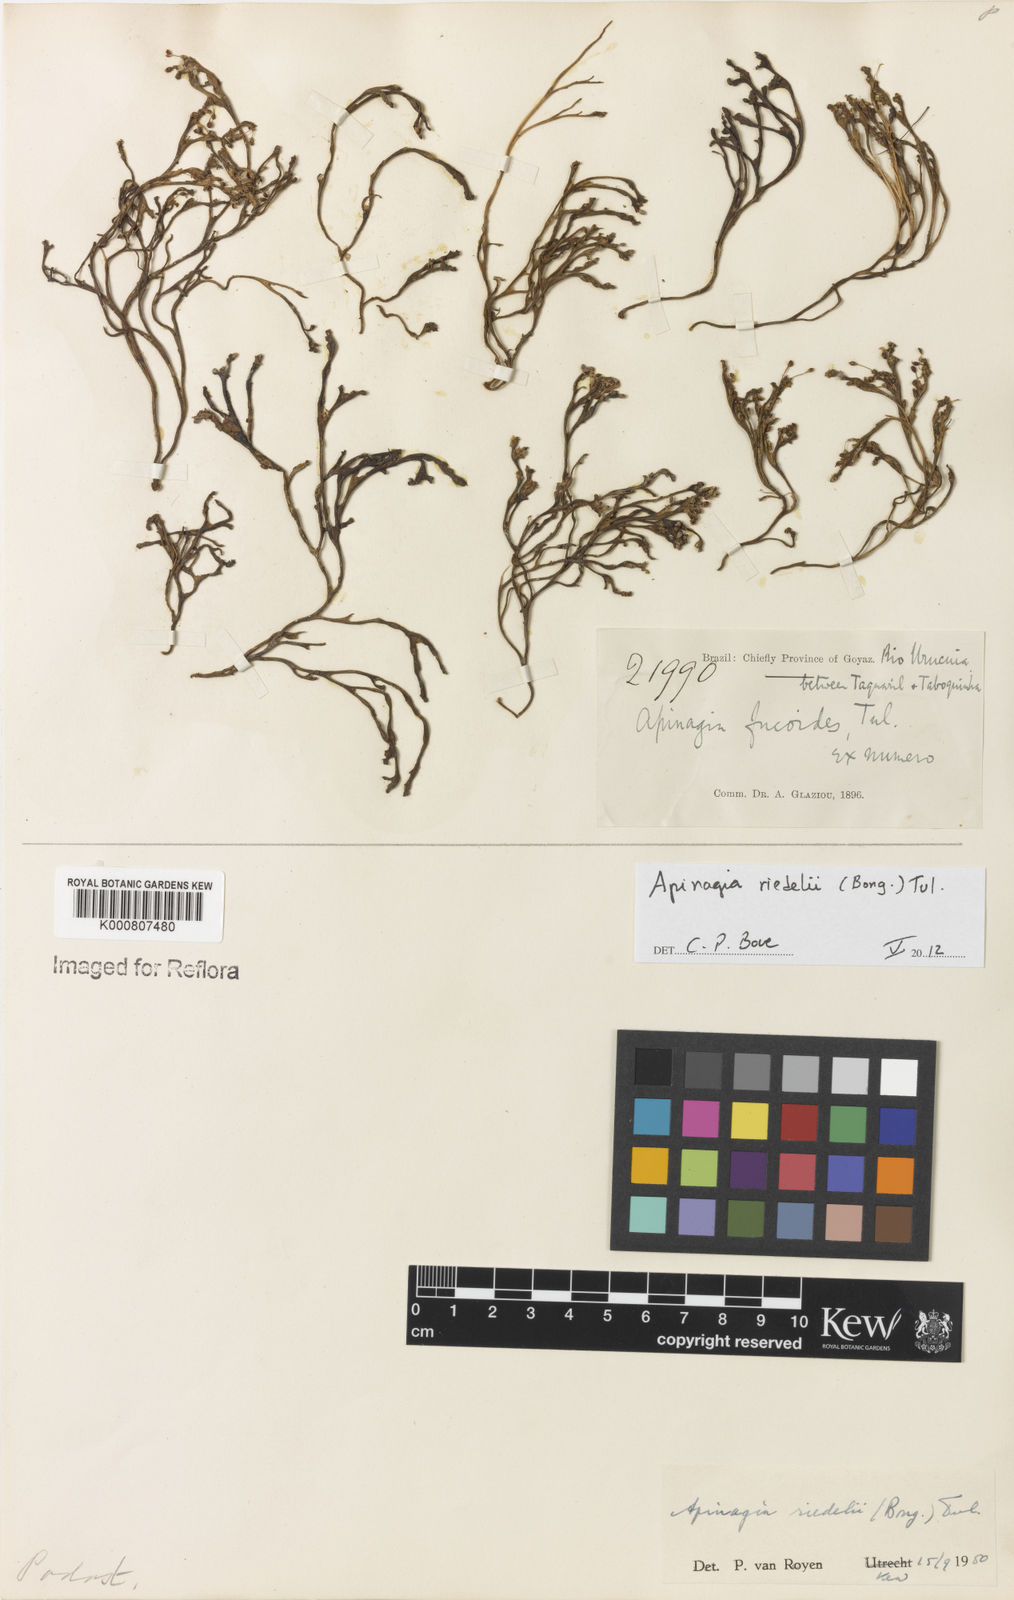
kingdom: Plantae
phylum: Tracheophyta
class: Magnoliopsida
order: Malpighiales
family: Podostemaceae
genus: Apinagia
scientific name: Apinagia riedelii
